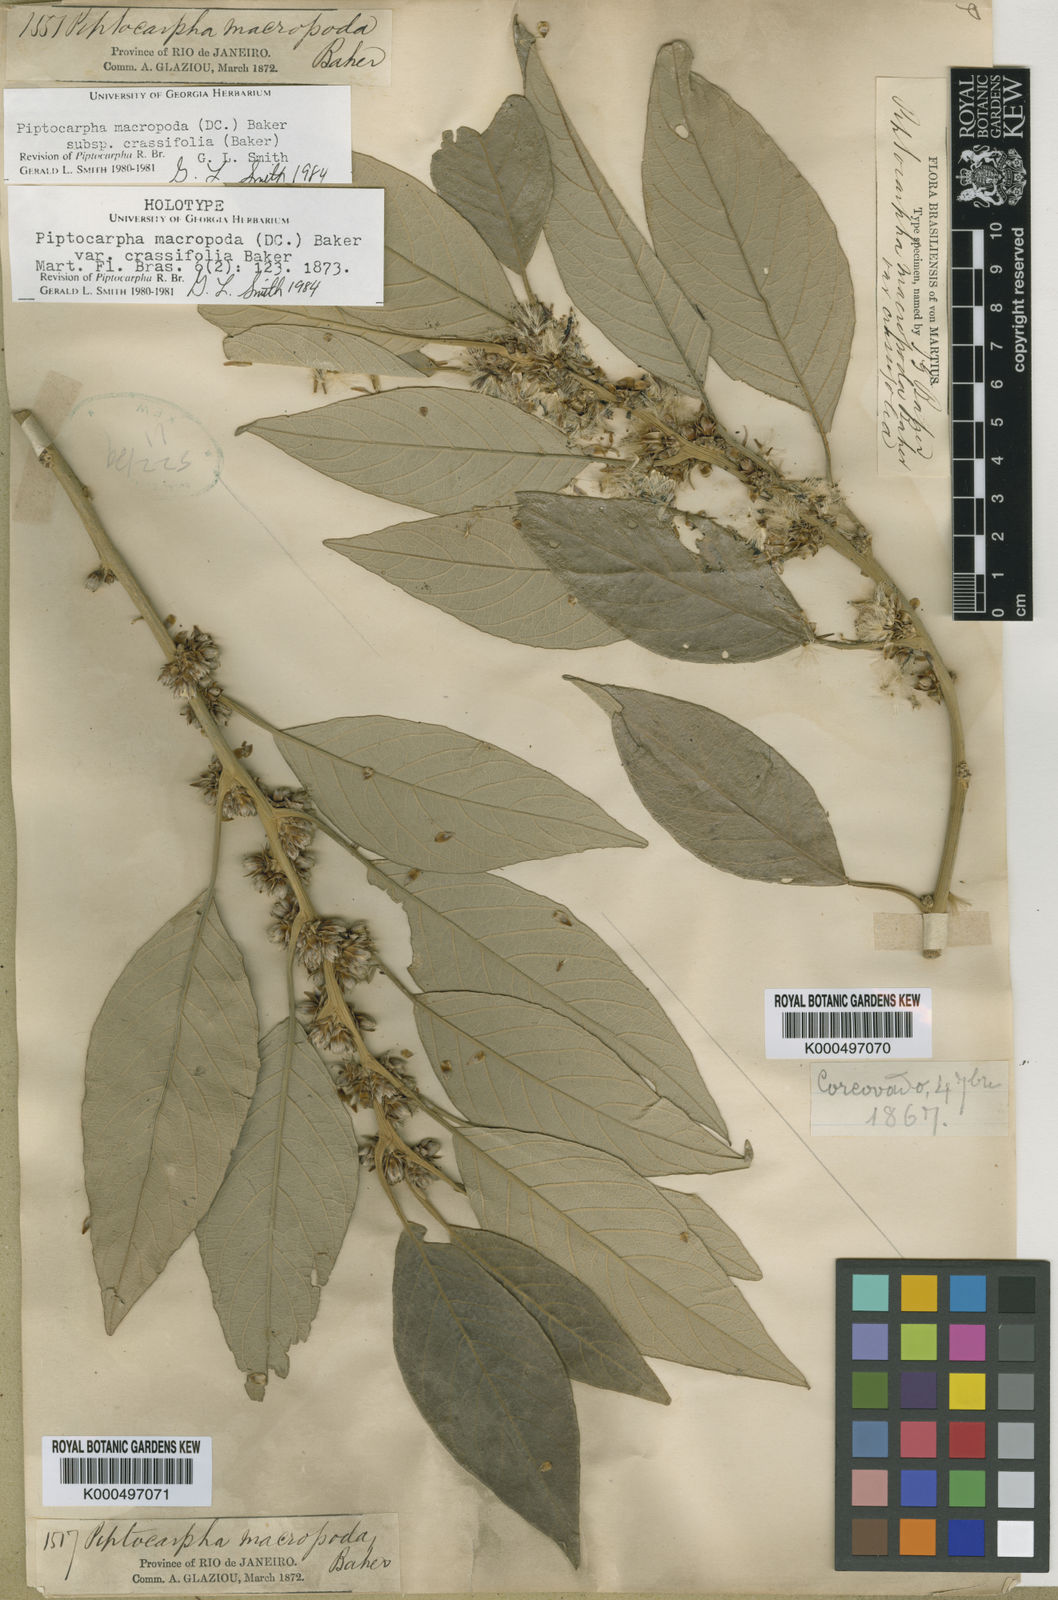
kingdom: Plantae
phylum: Tracheophyta
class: Magnoliopsida
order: Asterales
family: Asteraceae
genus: Piptocarpha
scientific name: Piptocarpha macropoda
